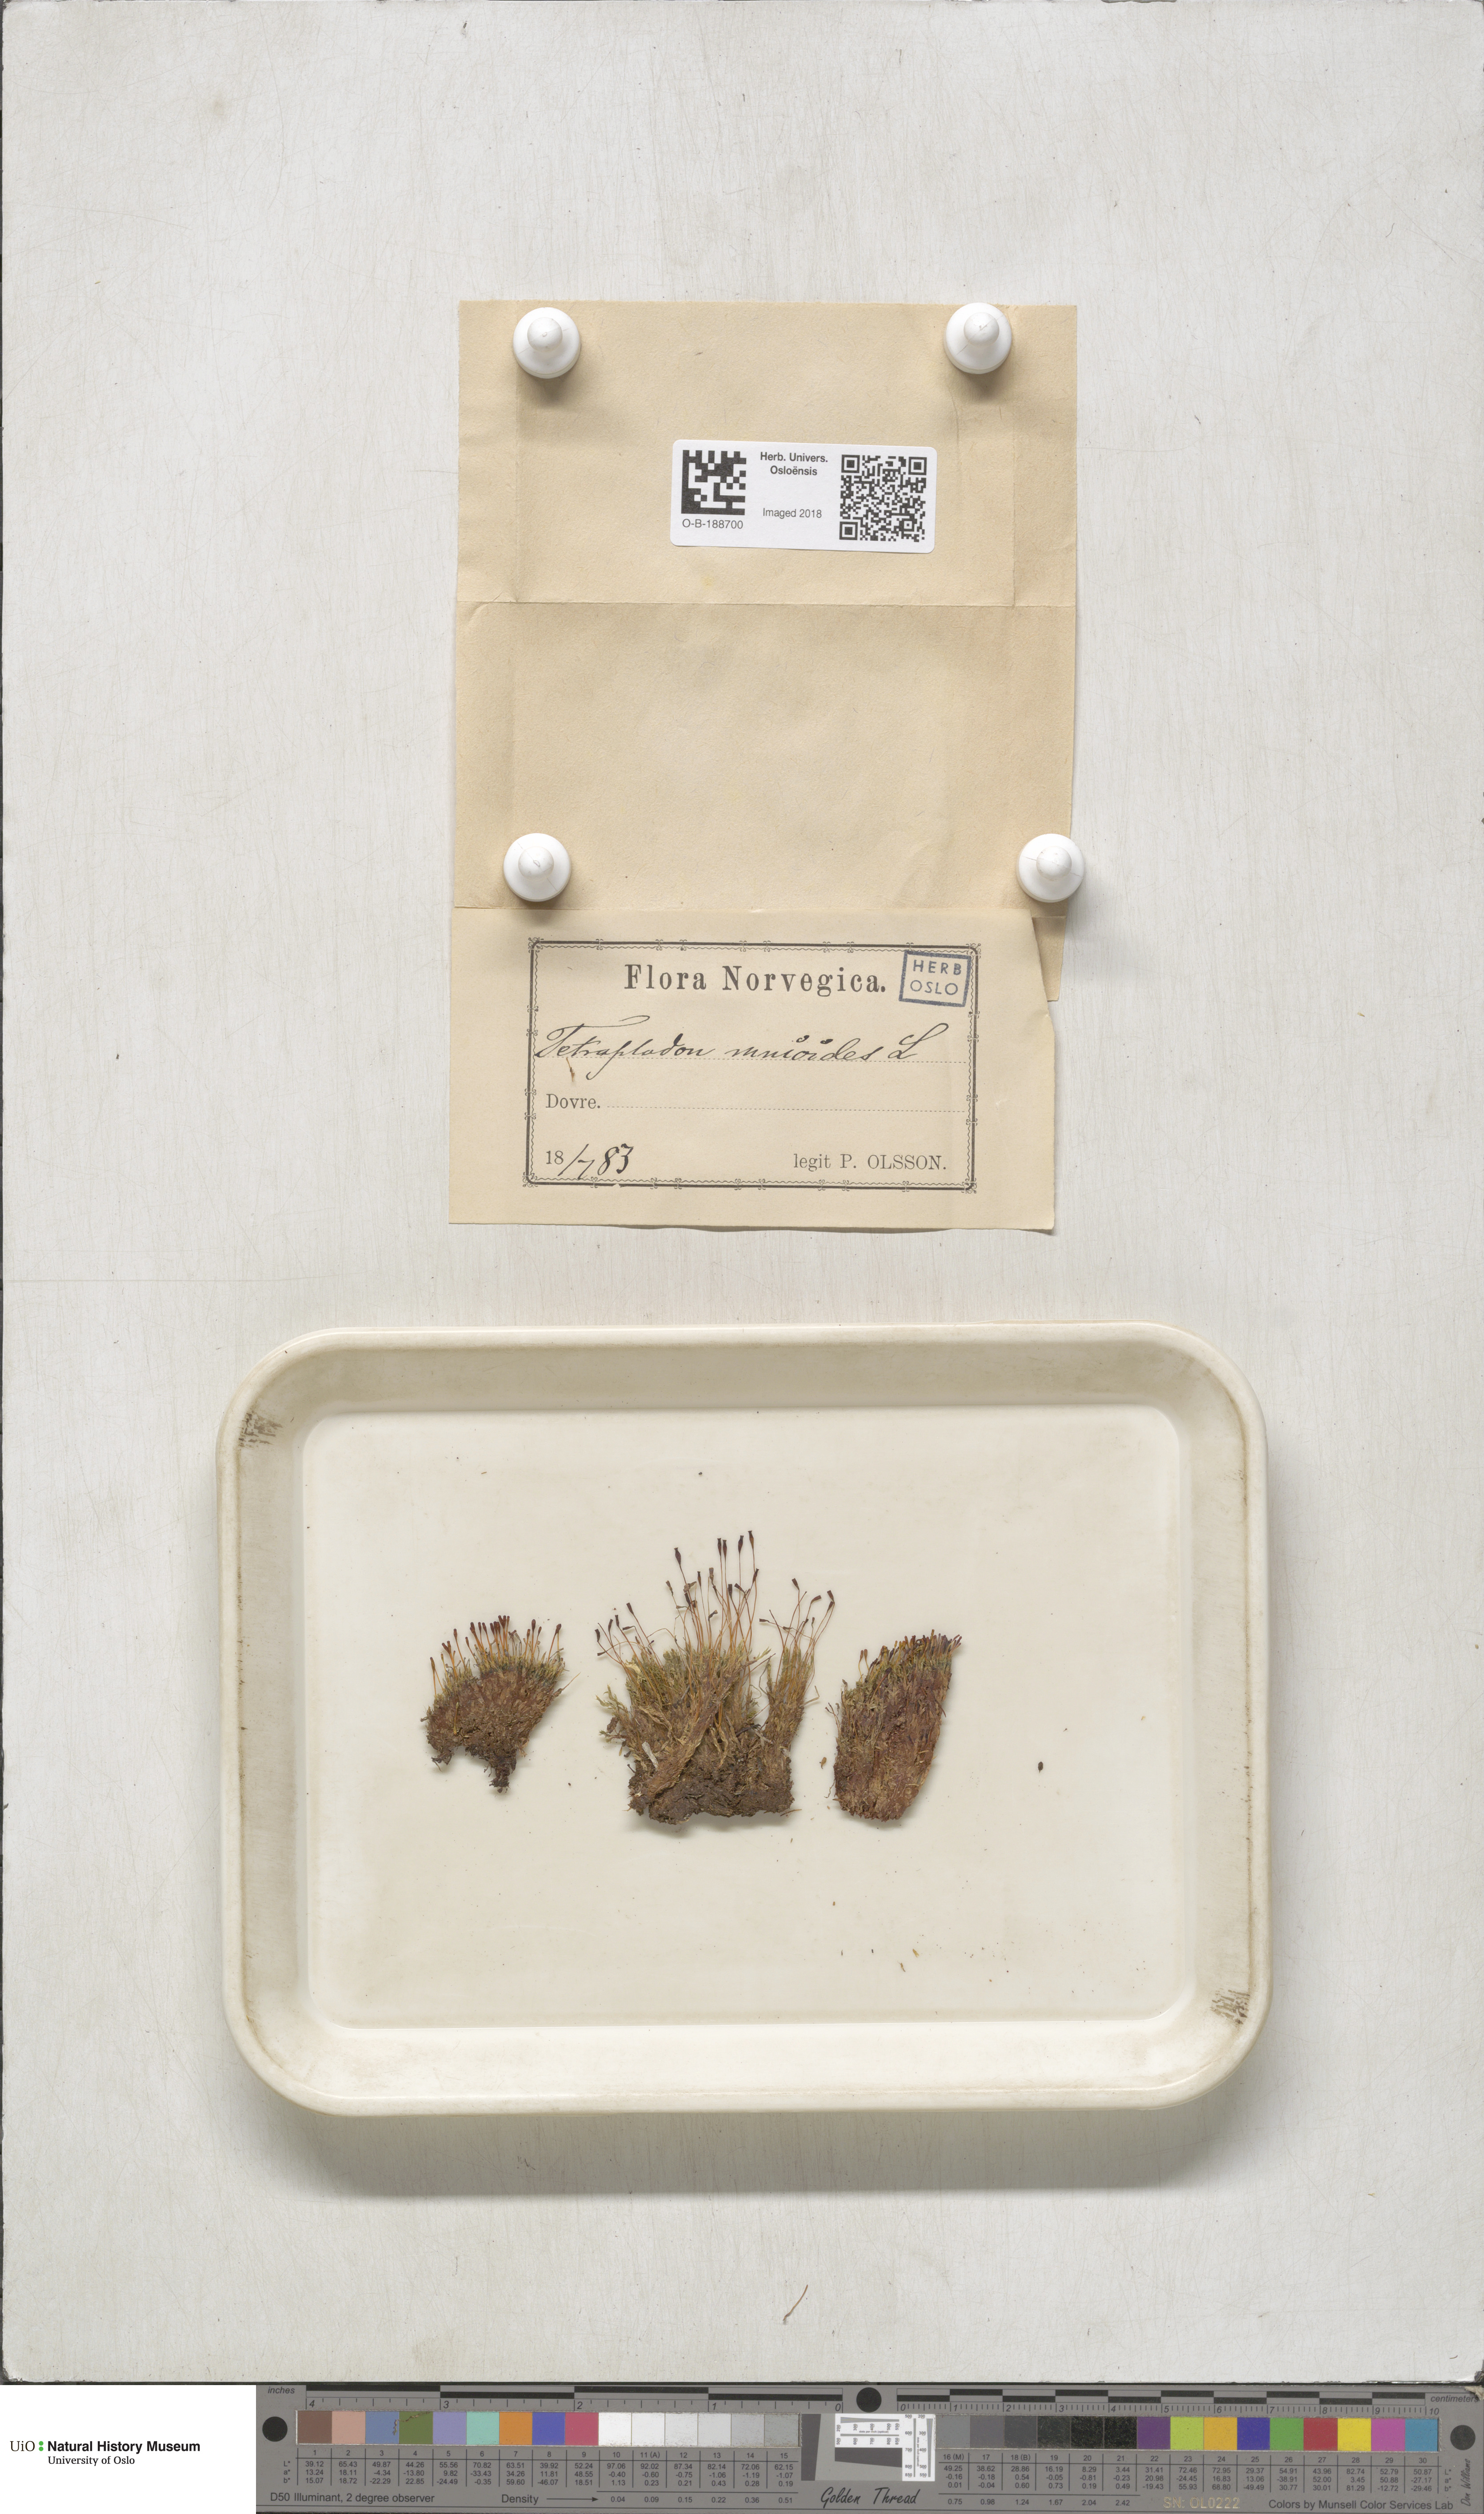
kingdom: Plantae
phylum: Bryophyta
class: Bryopsida
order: Splachnales
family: Splachnaceae
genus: Tetraplodon
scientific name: Tetraplodon mnioides
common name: Entire-leaved nitrogen moss
